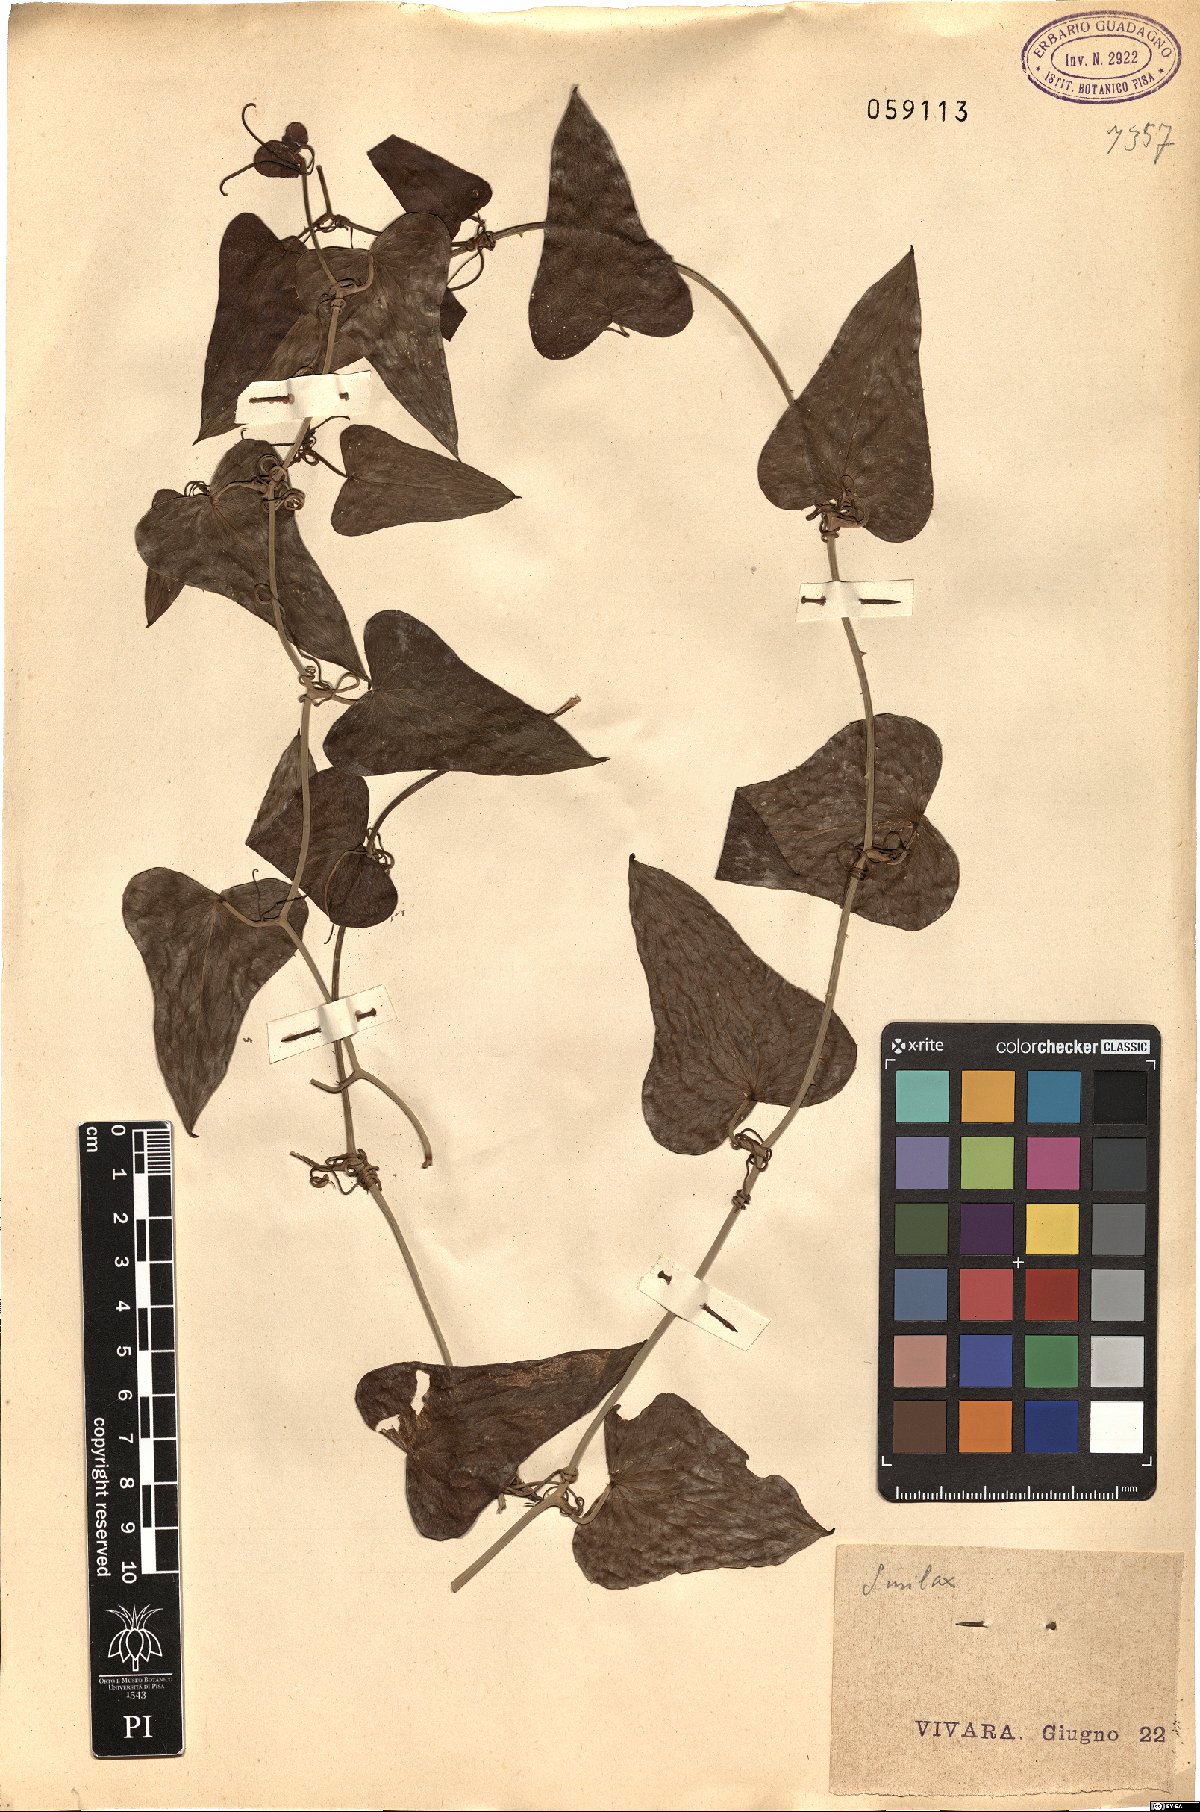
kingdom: Plantae
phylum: Tracheophyta
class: Liliopsida
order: Liliales
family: Smilacaceae
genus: Smilax
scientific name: Smilax
